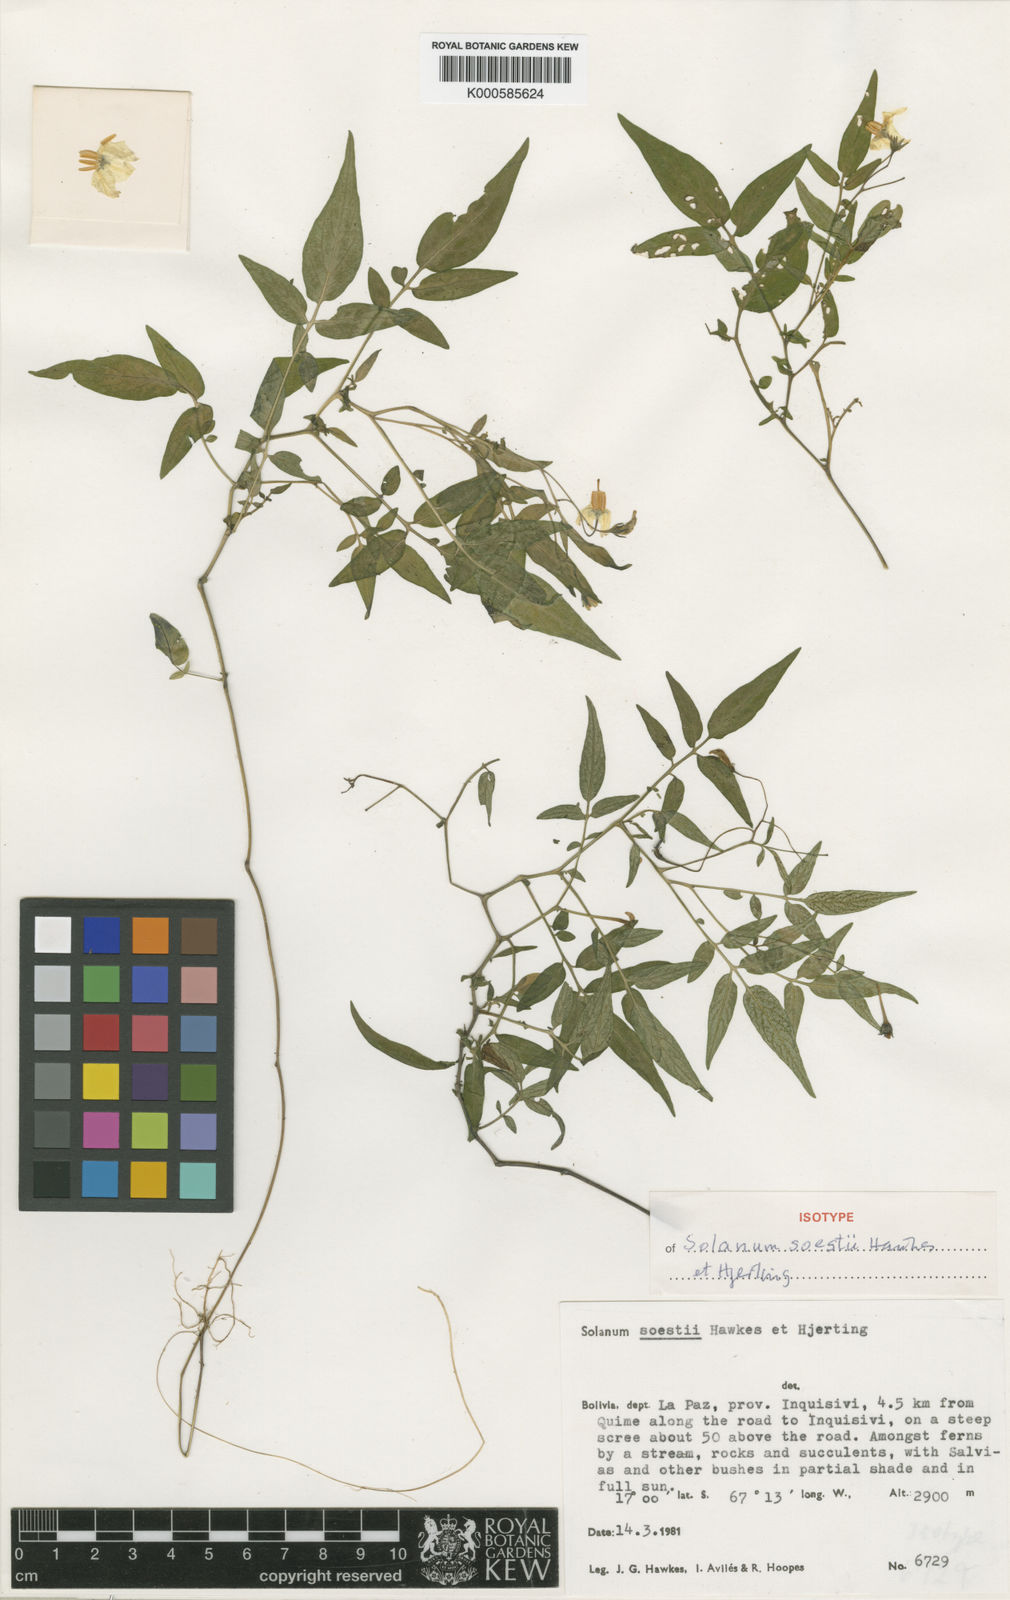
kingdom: Plantae
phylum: Tracheophyta
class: Magnoliopsida
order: Solanales
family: Solanaceae
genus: Solanum
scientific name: Solanum stipuloideum
